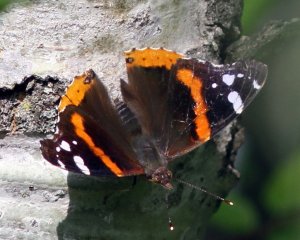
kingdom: Animalia
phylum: Arthropoda
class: Insecta
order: Lepidoptera
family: Nymphalidae
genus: Vanessa
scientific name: Vanessa atalanta
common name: Red Admiral
